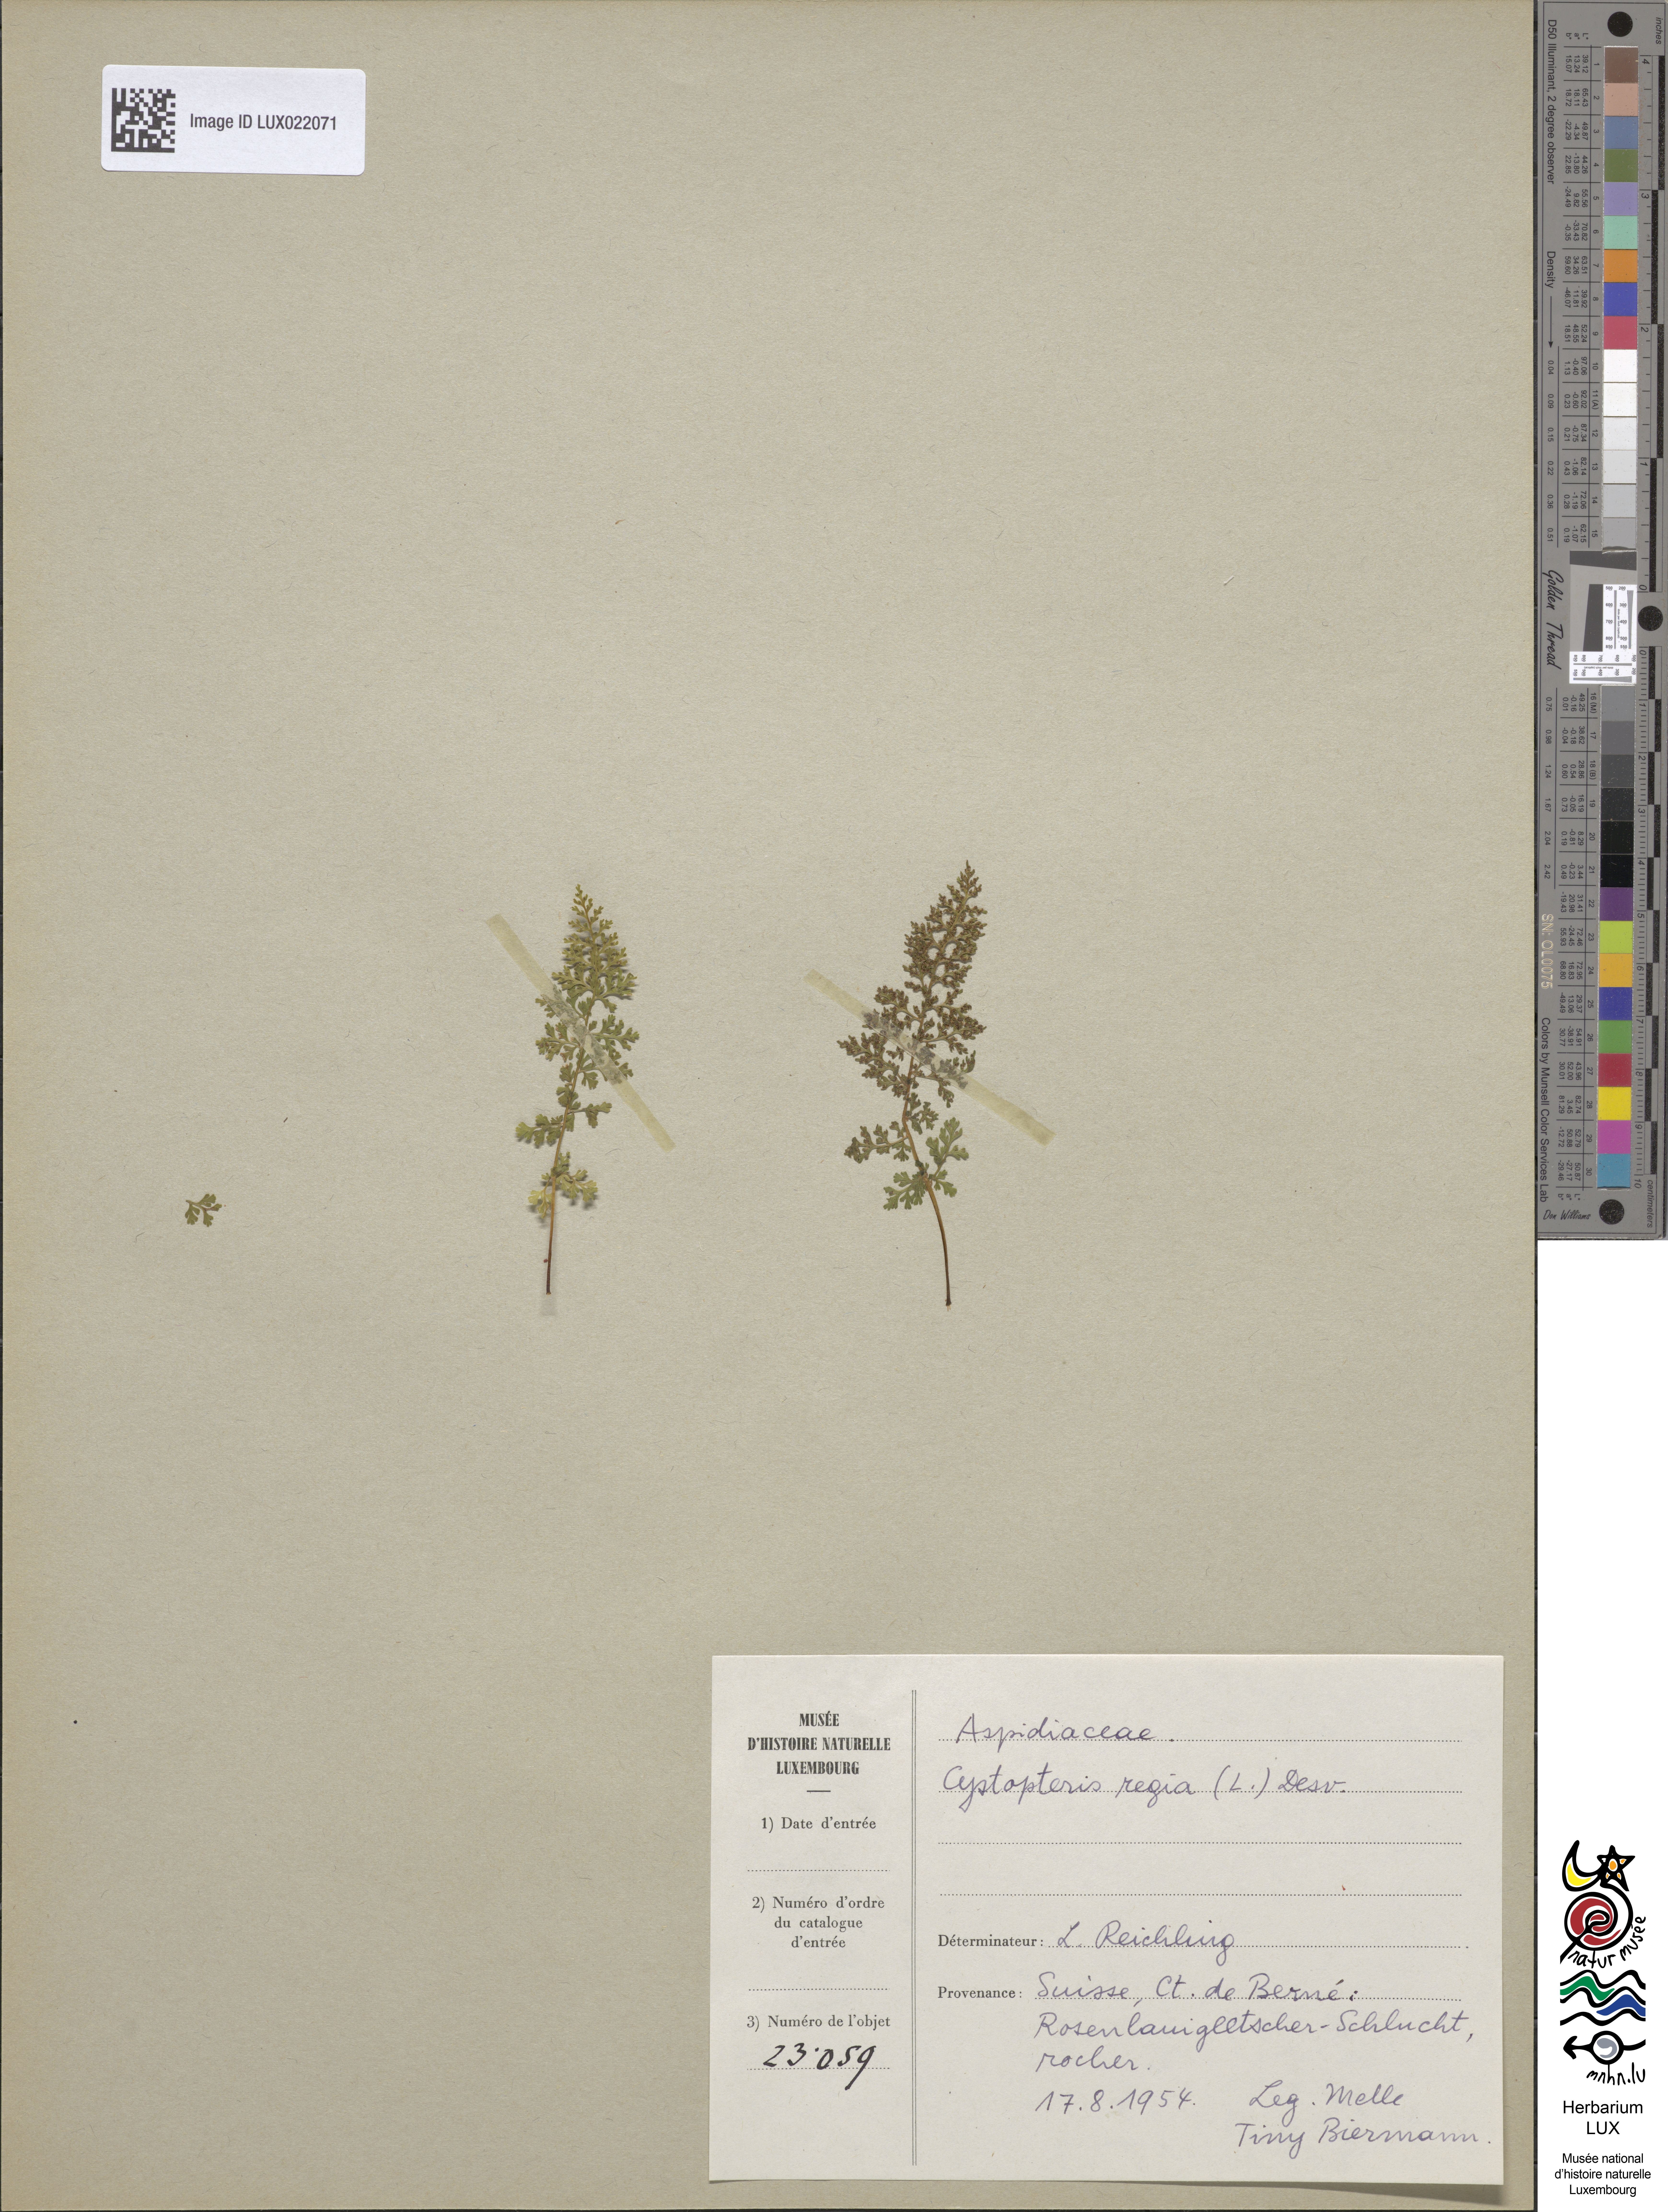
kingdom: Plantae
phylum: Tracheophyta
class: Polypodiopsida
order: Polypodiales
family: Cystopteridaceae
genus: Cystopteris
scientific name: Cystopteris montana
